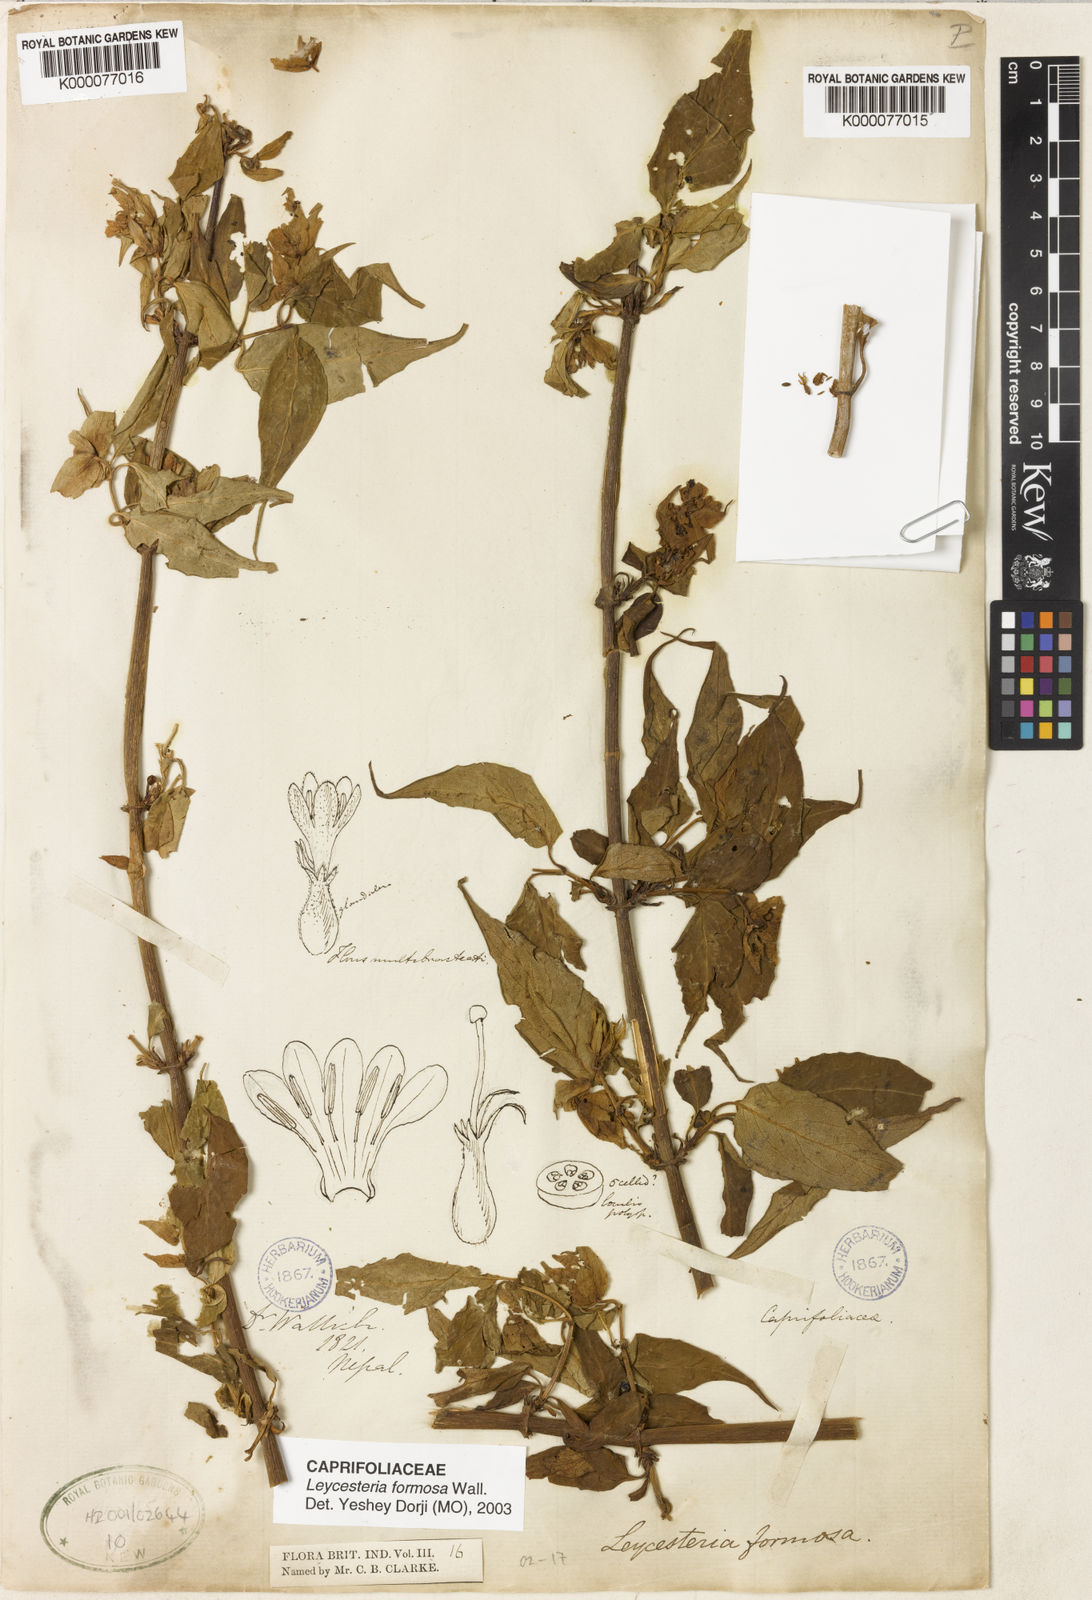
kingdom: Plantae
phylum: Tracheophyta
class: Magnoliopsida
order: Dipsacales
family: Caprifoliaceae
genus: Leycesteria
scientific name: Leycesteria formosa
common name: Himalayan honeysuckle
